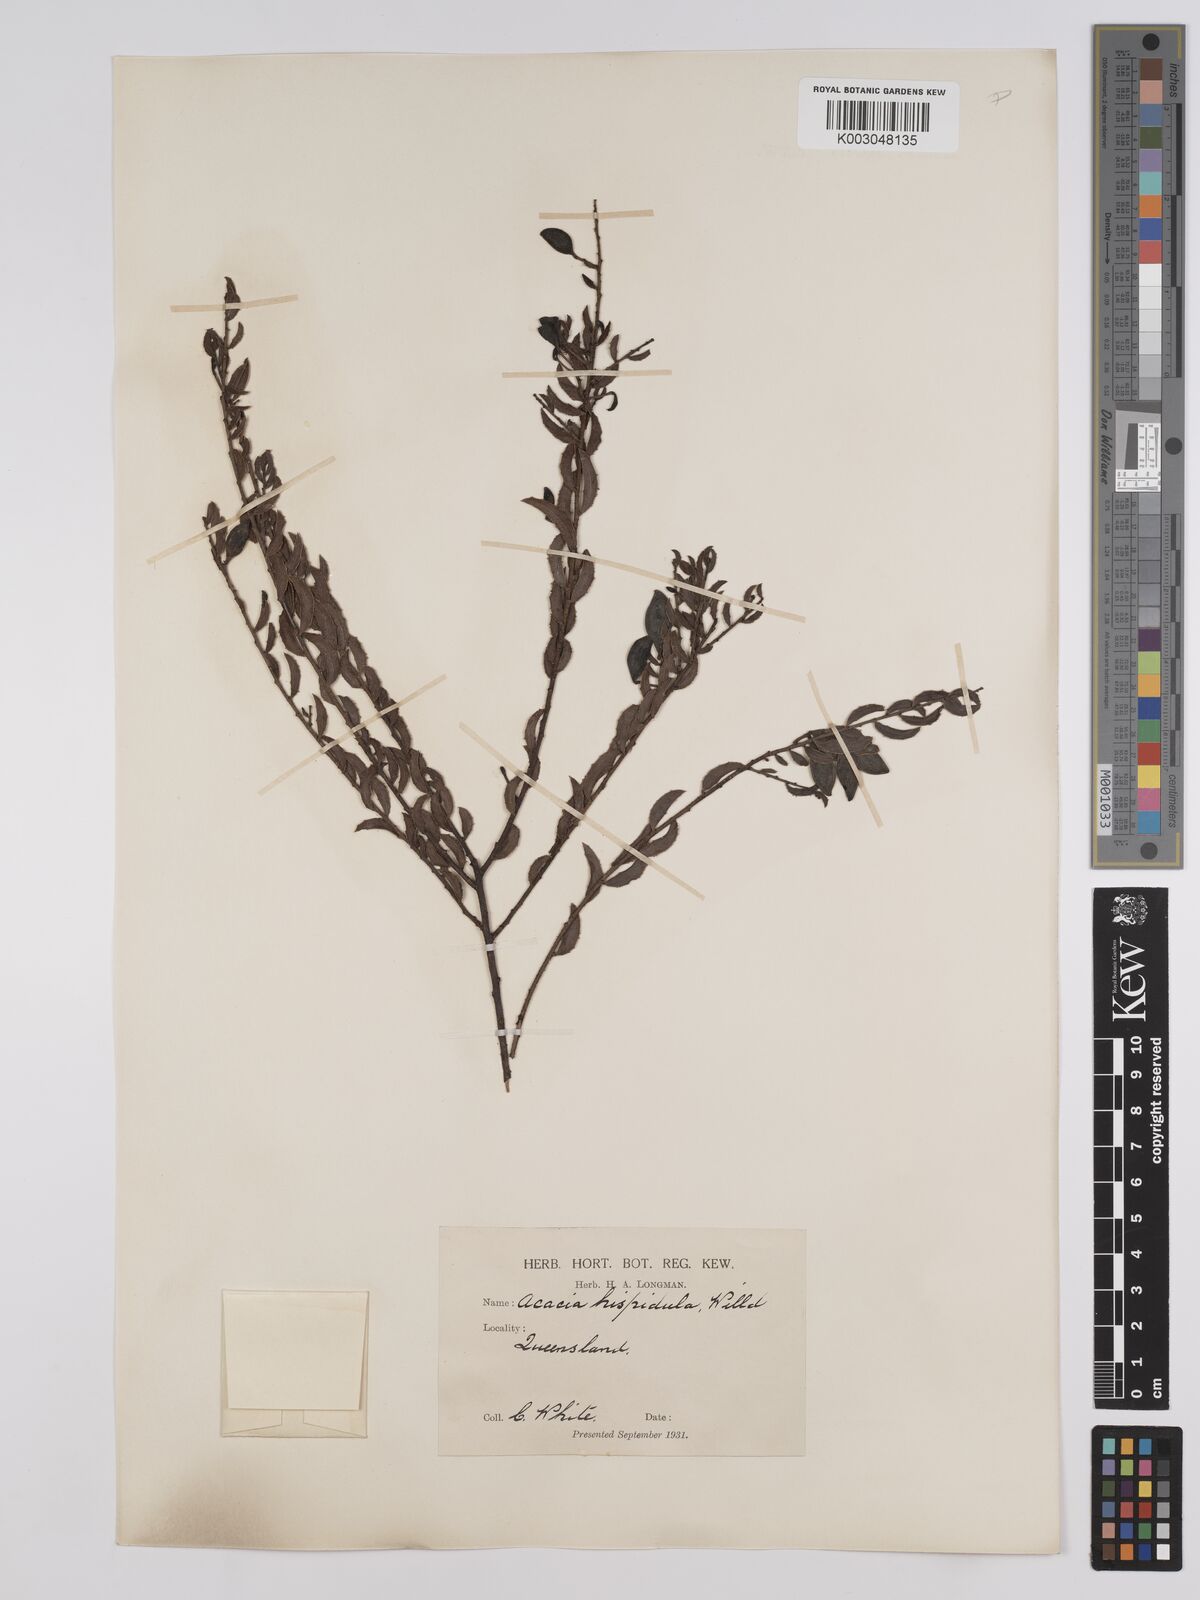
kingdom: Plantae
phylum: Tracheophyta
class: Magnoliopsida
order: Fabales
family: Fabaceae
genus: Acacia
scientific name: Acacia hispidula
